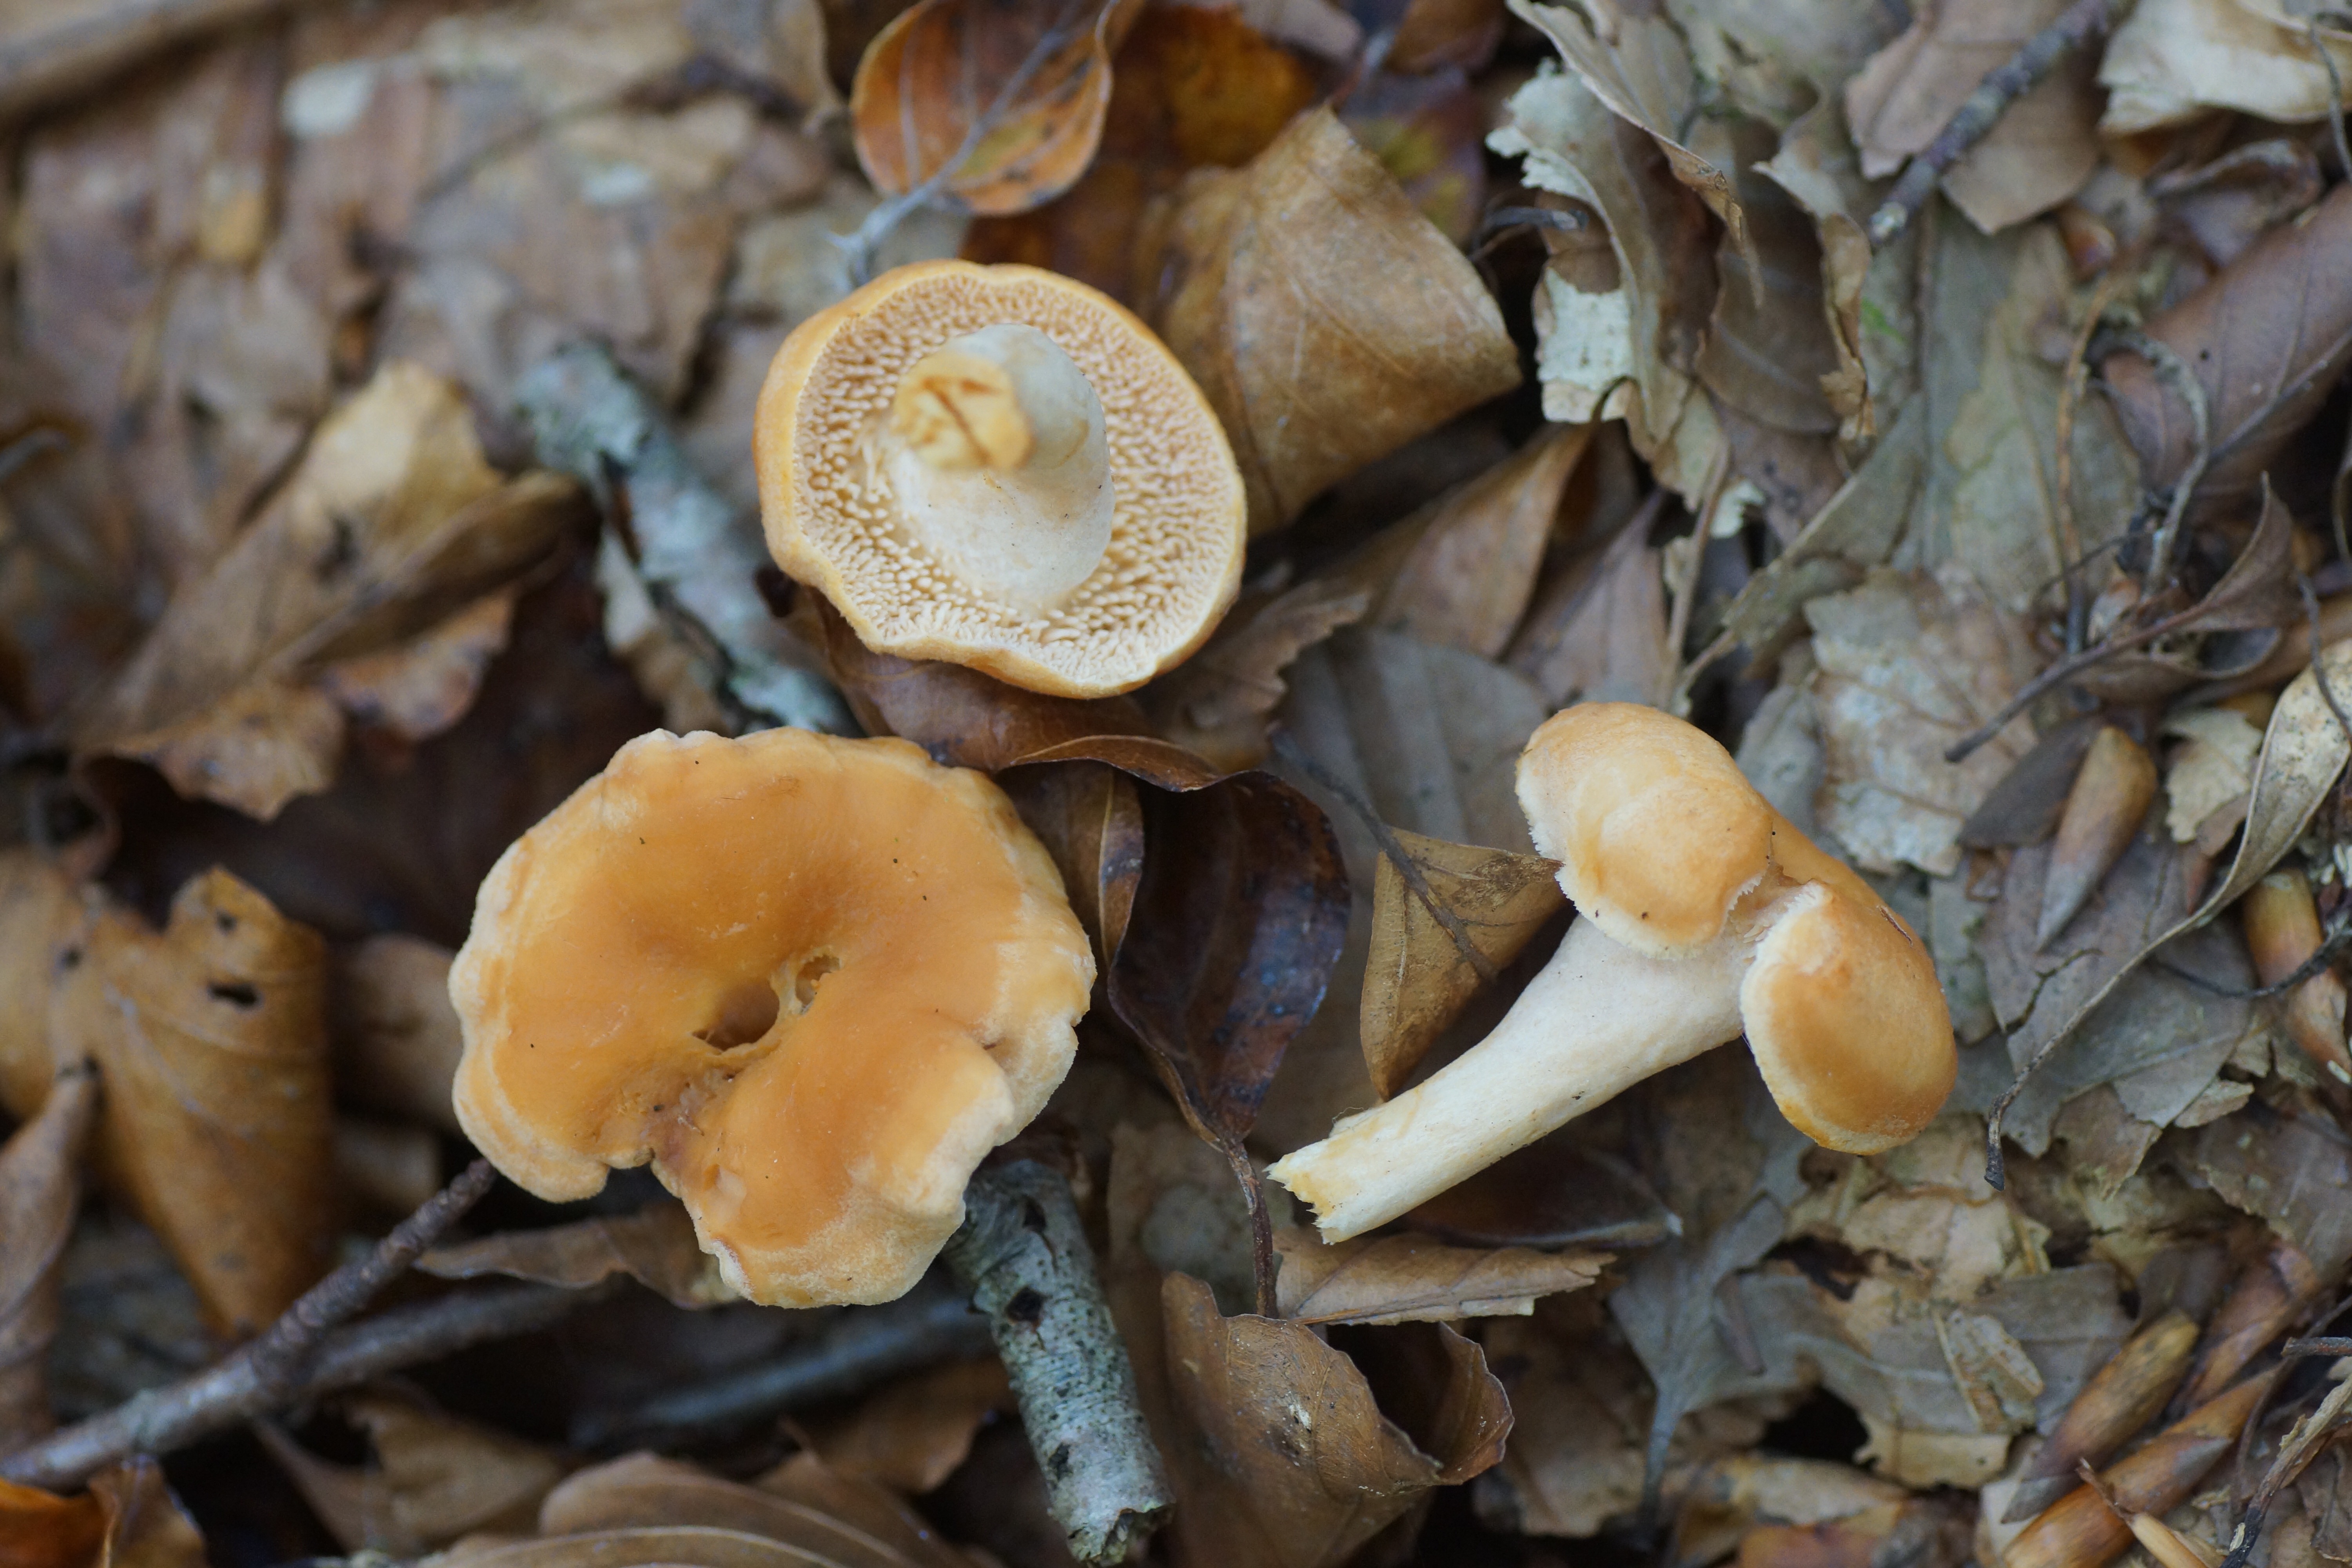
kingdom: Fungi
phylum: Basidiomycota
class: Agaricomycetes
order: Cantharellales
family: Hydnaceae
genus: Hydnum
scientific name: Hydnum rufescens
